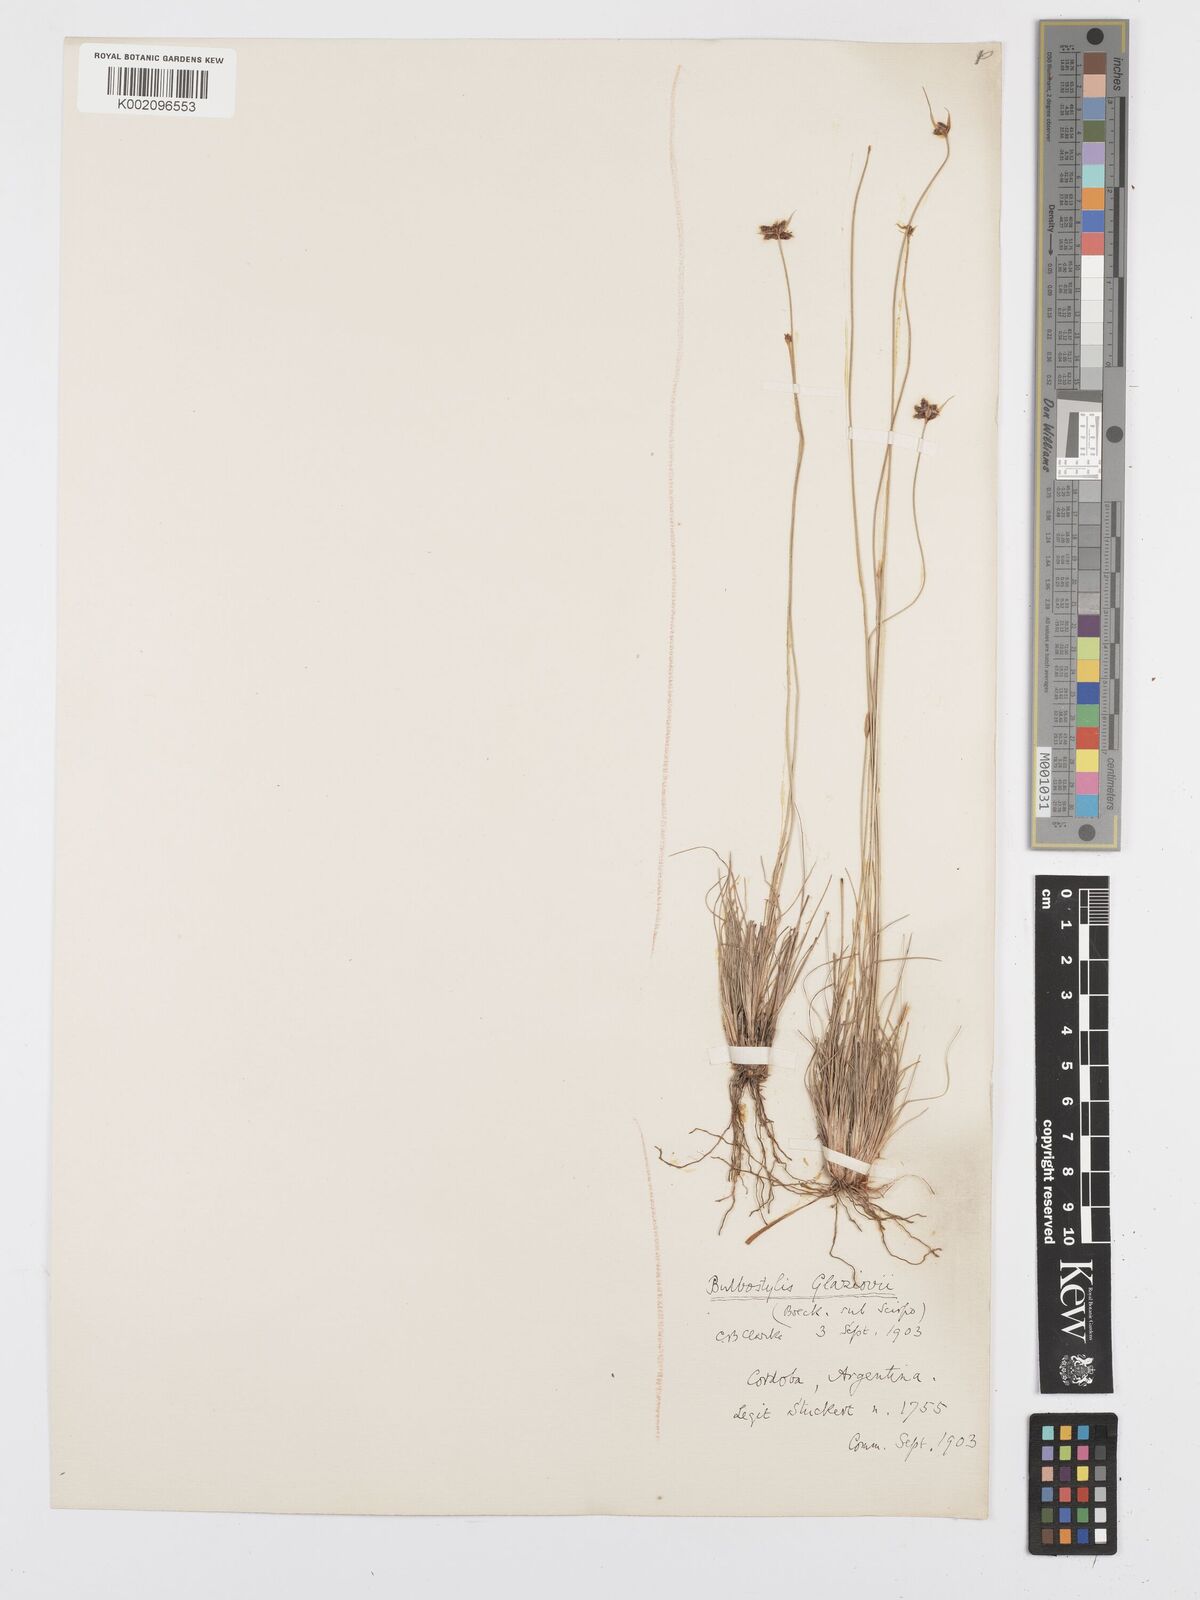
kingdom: Plantae
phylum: Tracheophyta
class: Liliopsida
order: Poales
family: Cyperaceae
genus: Bulbostylis
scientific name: Bulbostylis juncoides
